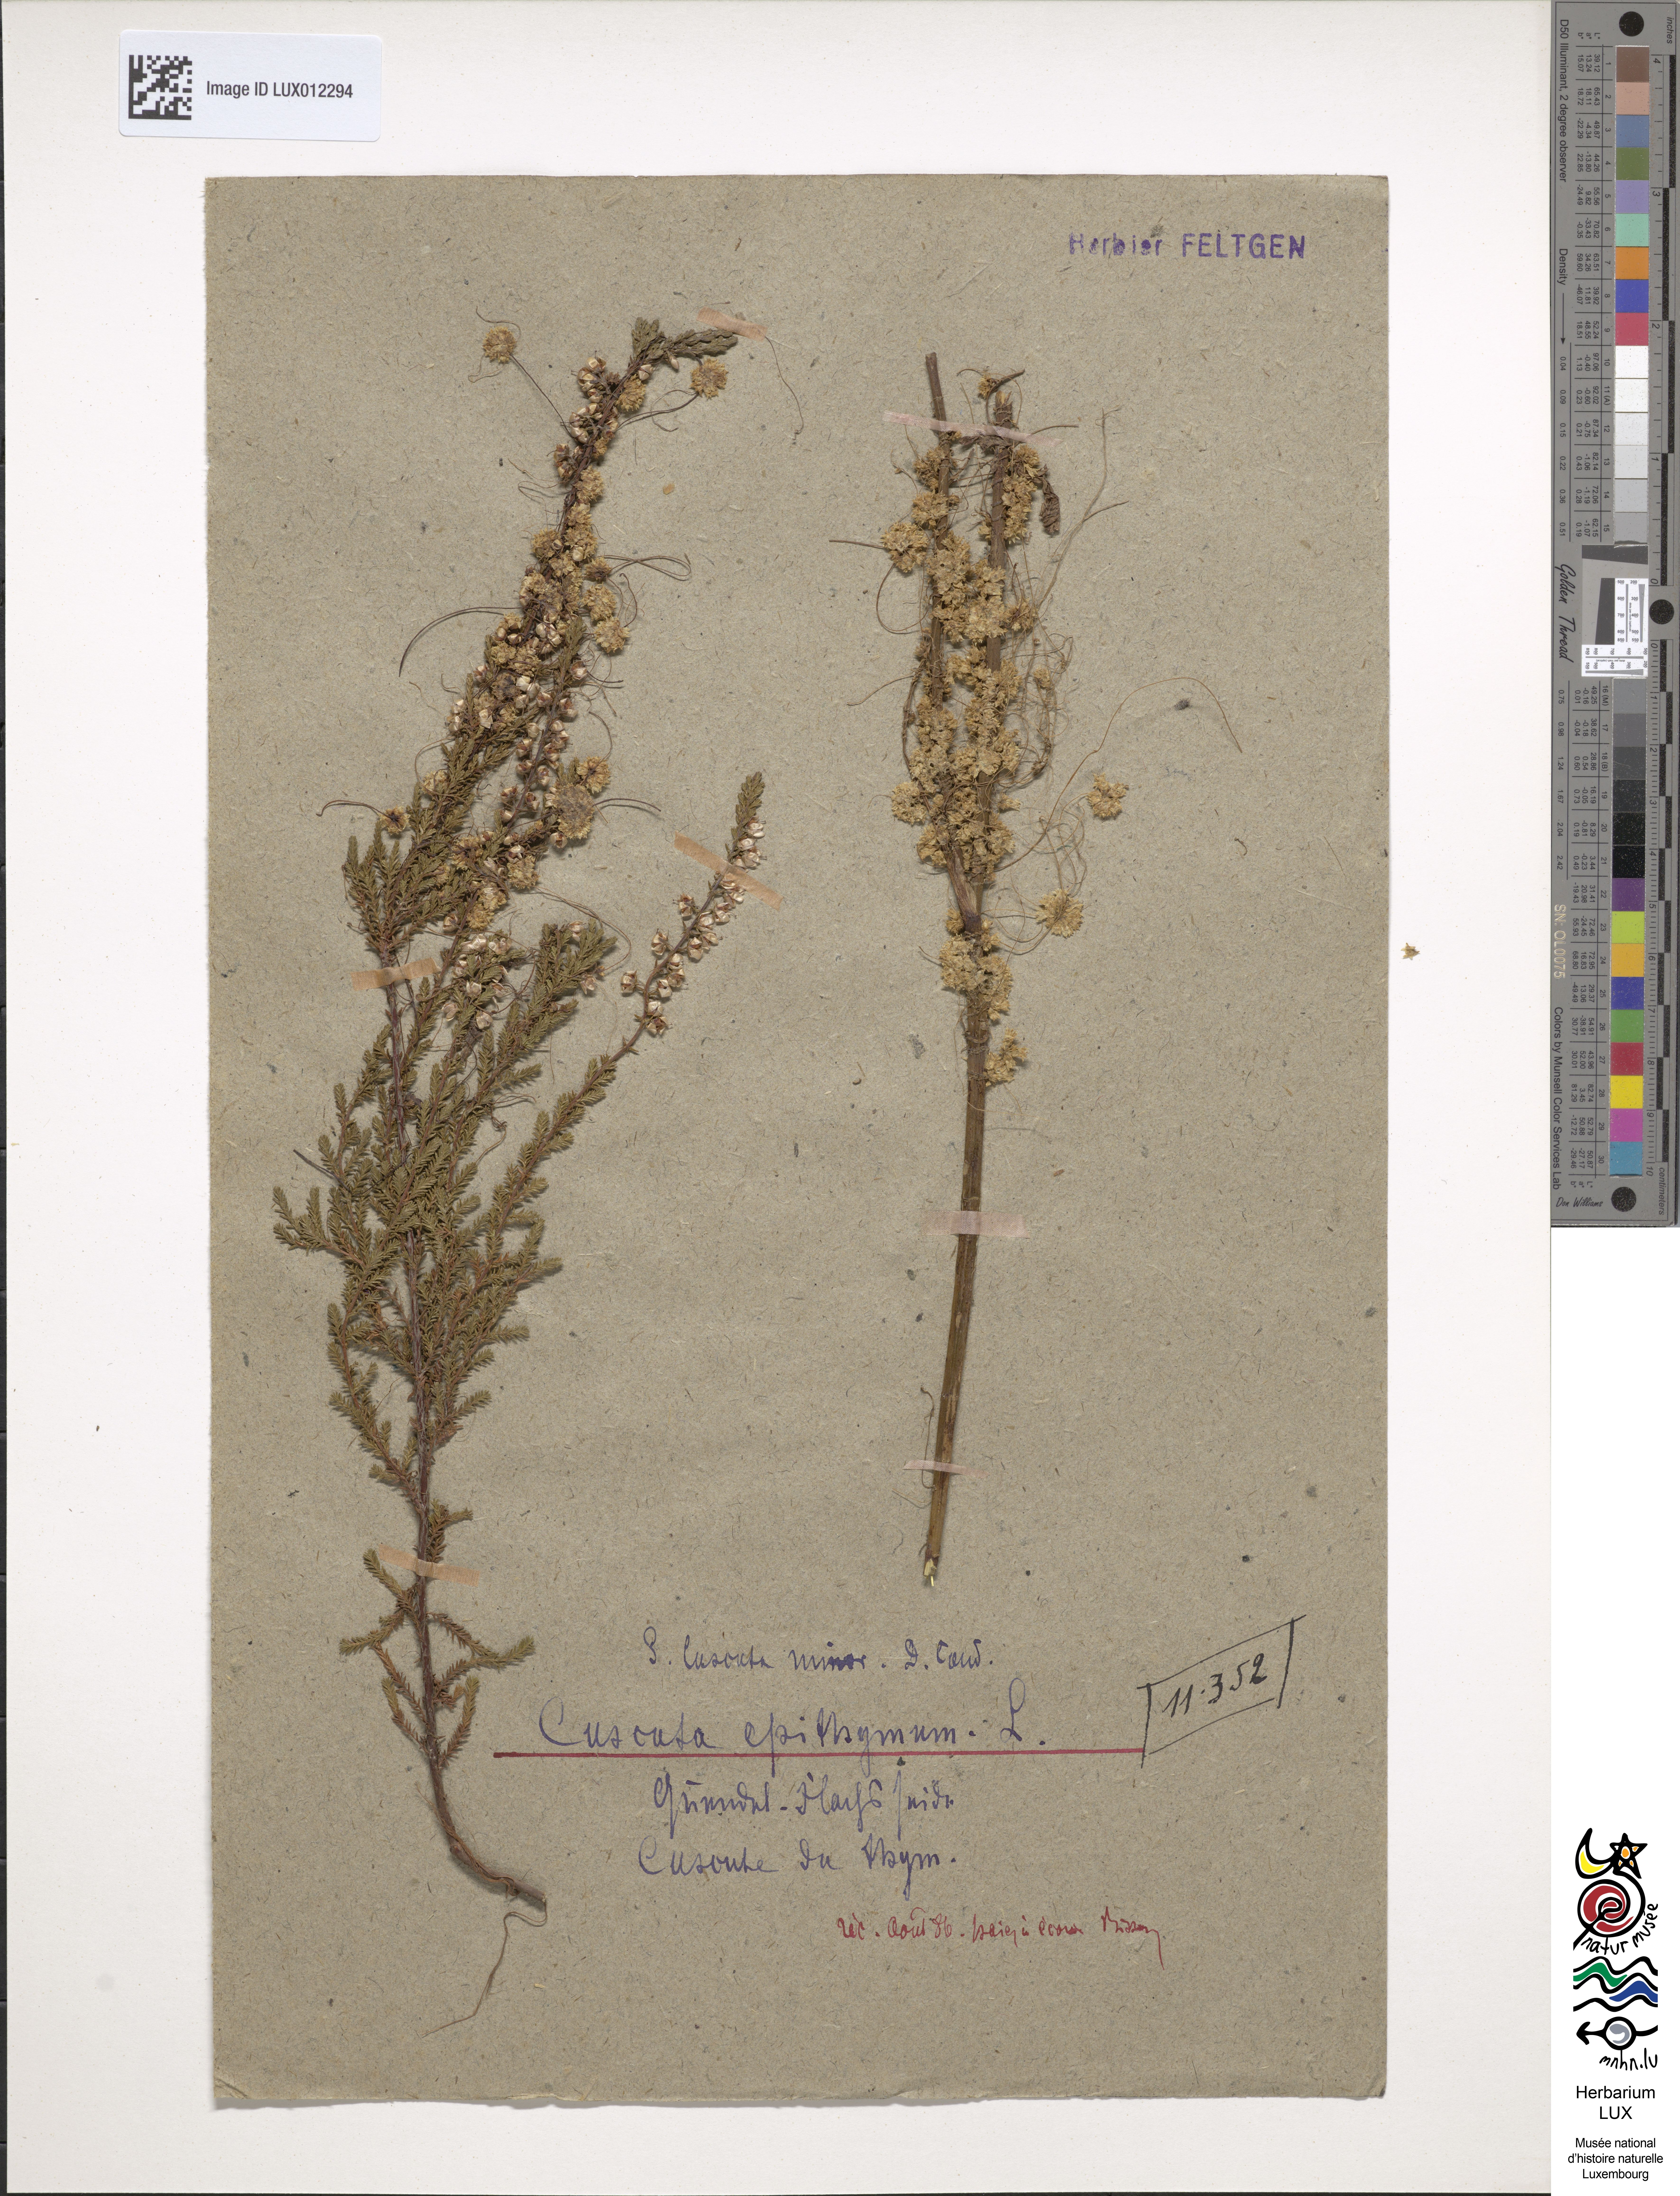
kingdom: Plantae
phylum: Tracheophyta
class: Magnoliopsida
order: Solanales
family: Convolvulaceae
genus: Cuscuta
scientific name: Cuscuta epithymum
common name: Clover dodder
